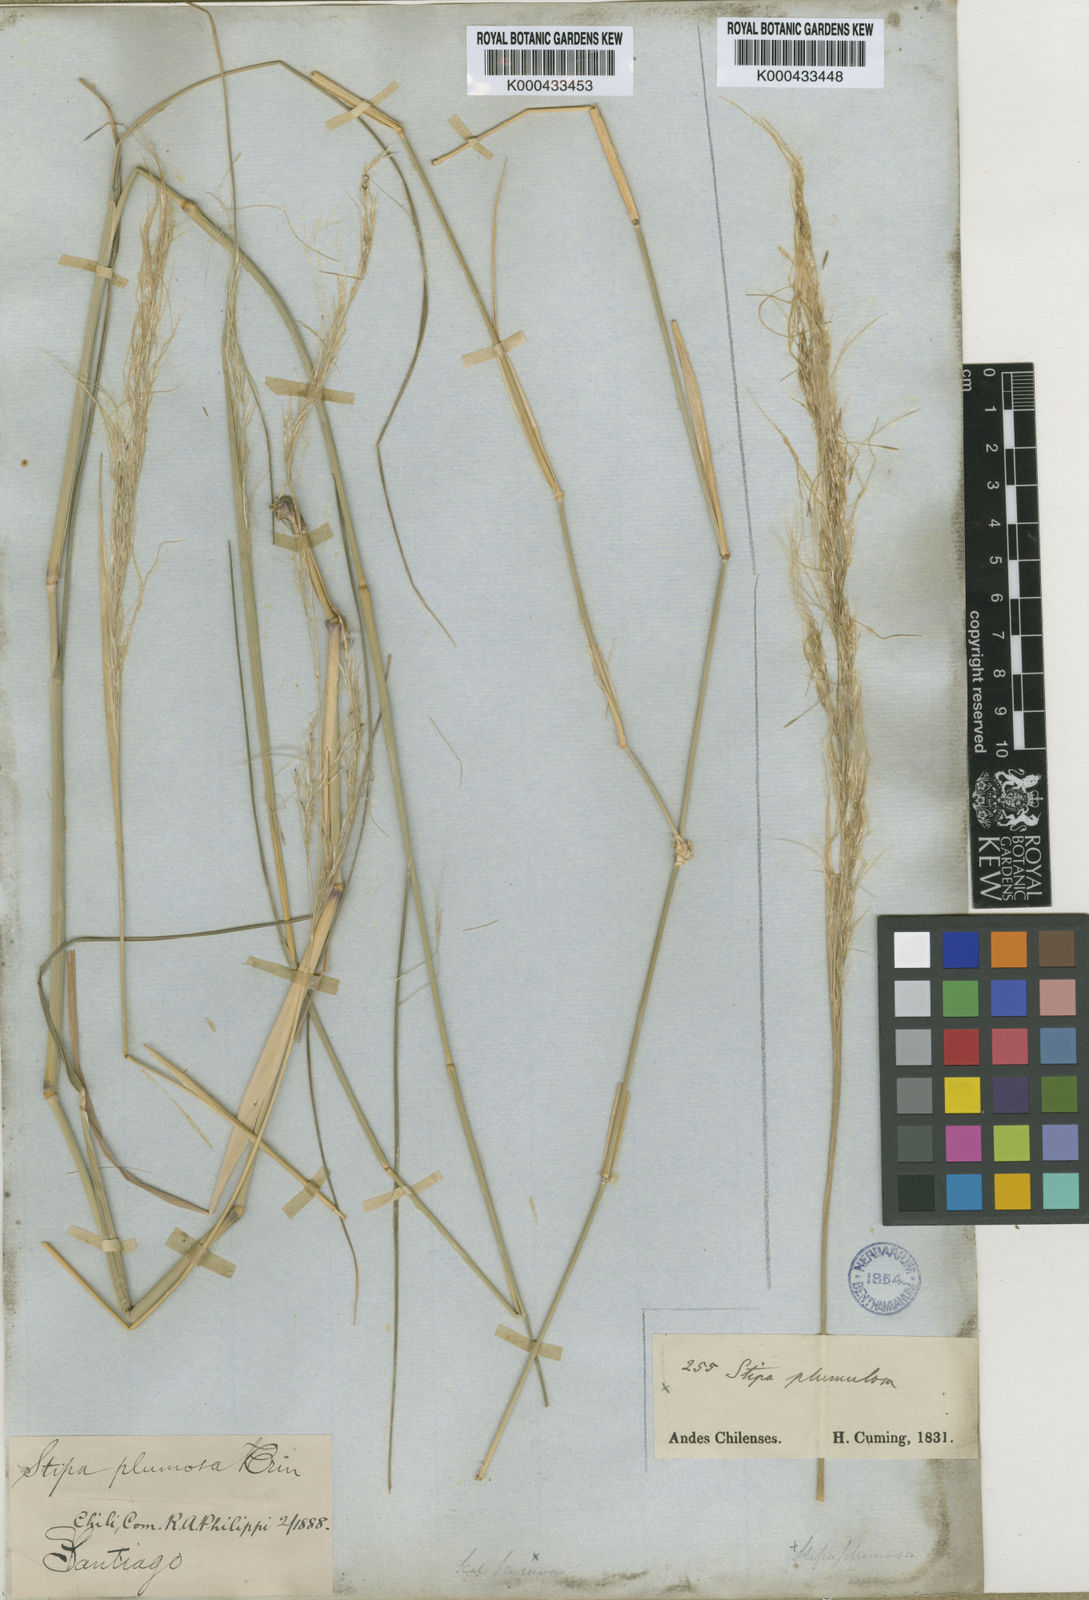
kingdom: Plantae
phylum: Tracheophyta
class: Liliopsida
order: Poales
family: Poaceae
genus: Stipa
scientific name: Stipa plumosa
